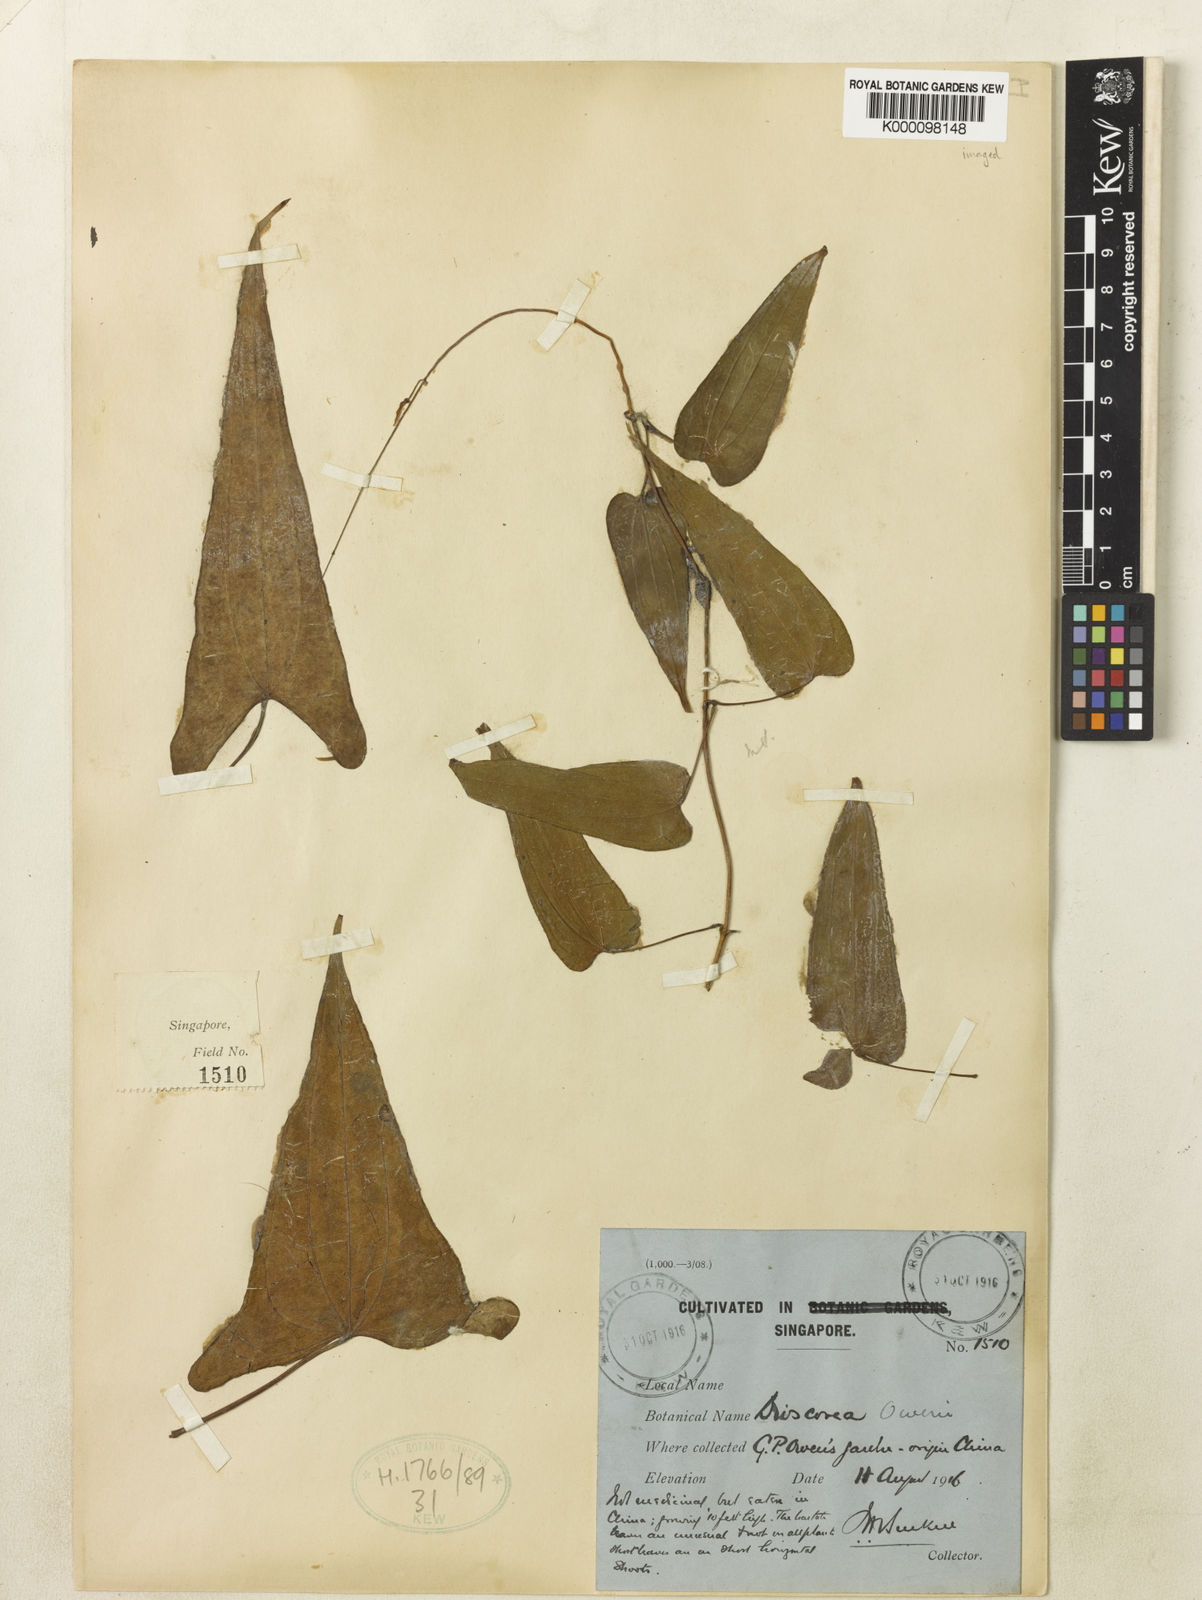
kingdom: Plantae
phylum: Tracheophyta
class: Liliopsida
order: Dioscoreales
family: Dioscoreaceae
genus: Dioscorea
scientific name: Dioscorea owenii
